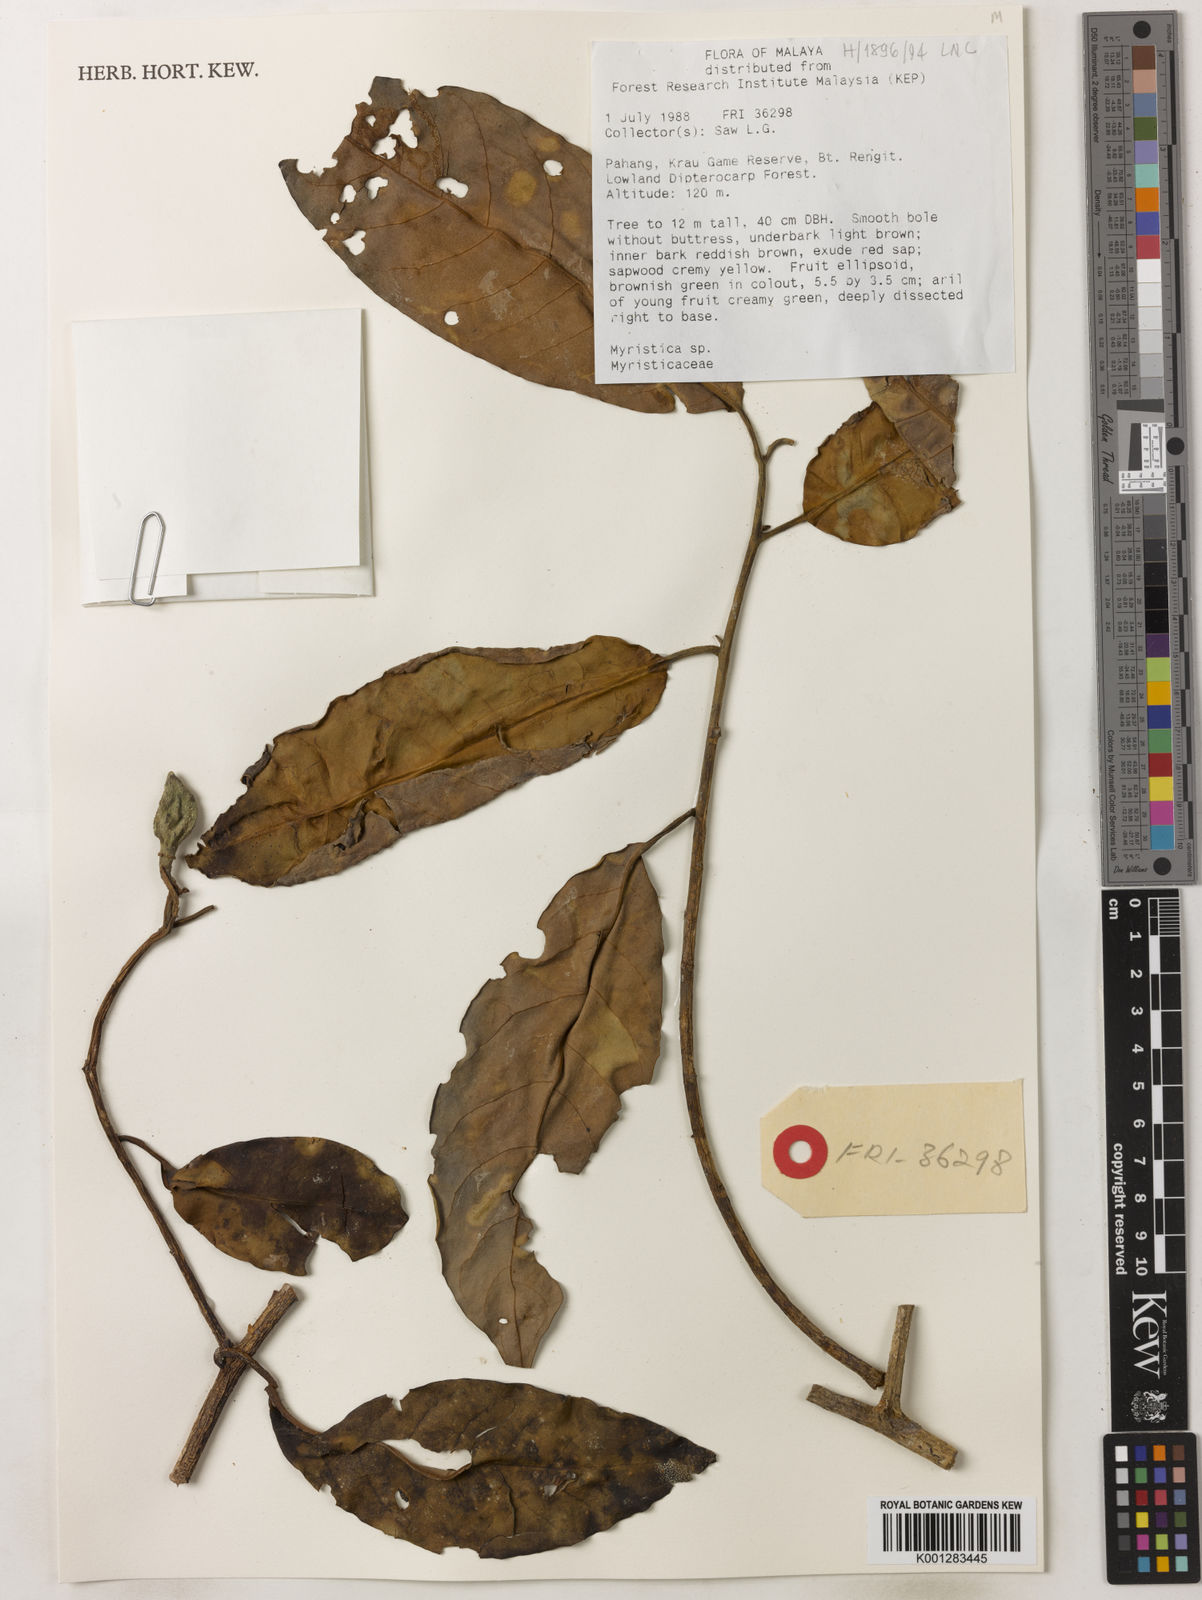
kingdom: Plantae
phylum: Tracheophyta
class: Magnoliopsida
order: Magnoliales
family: Myristicaceae
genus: Myristica
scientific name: Myristica
